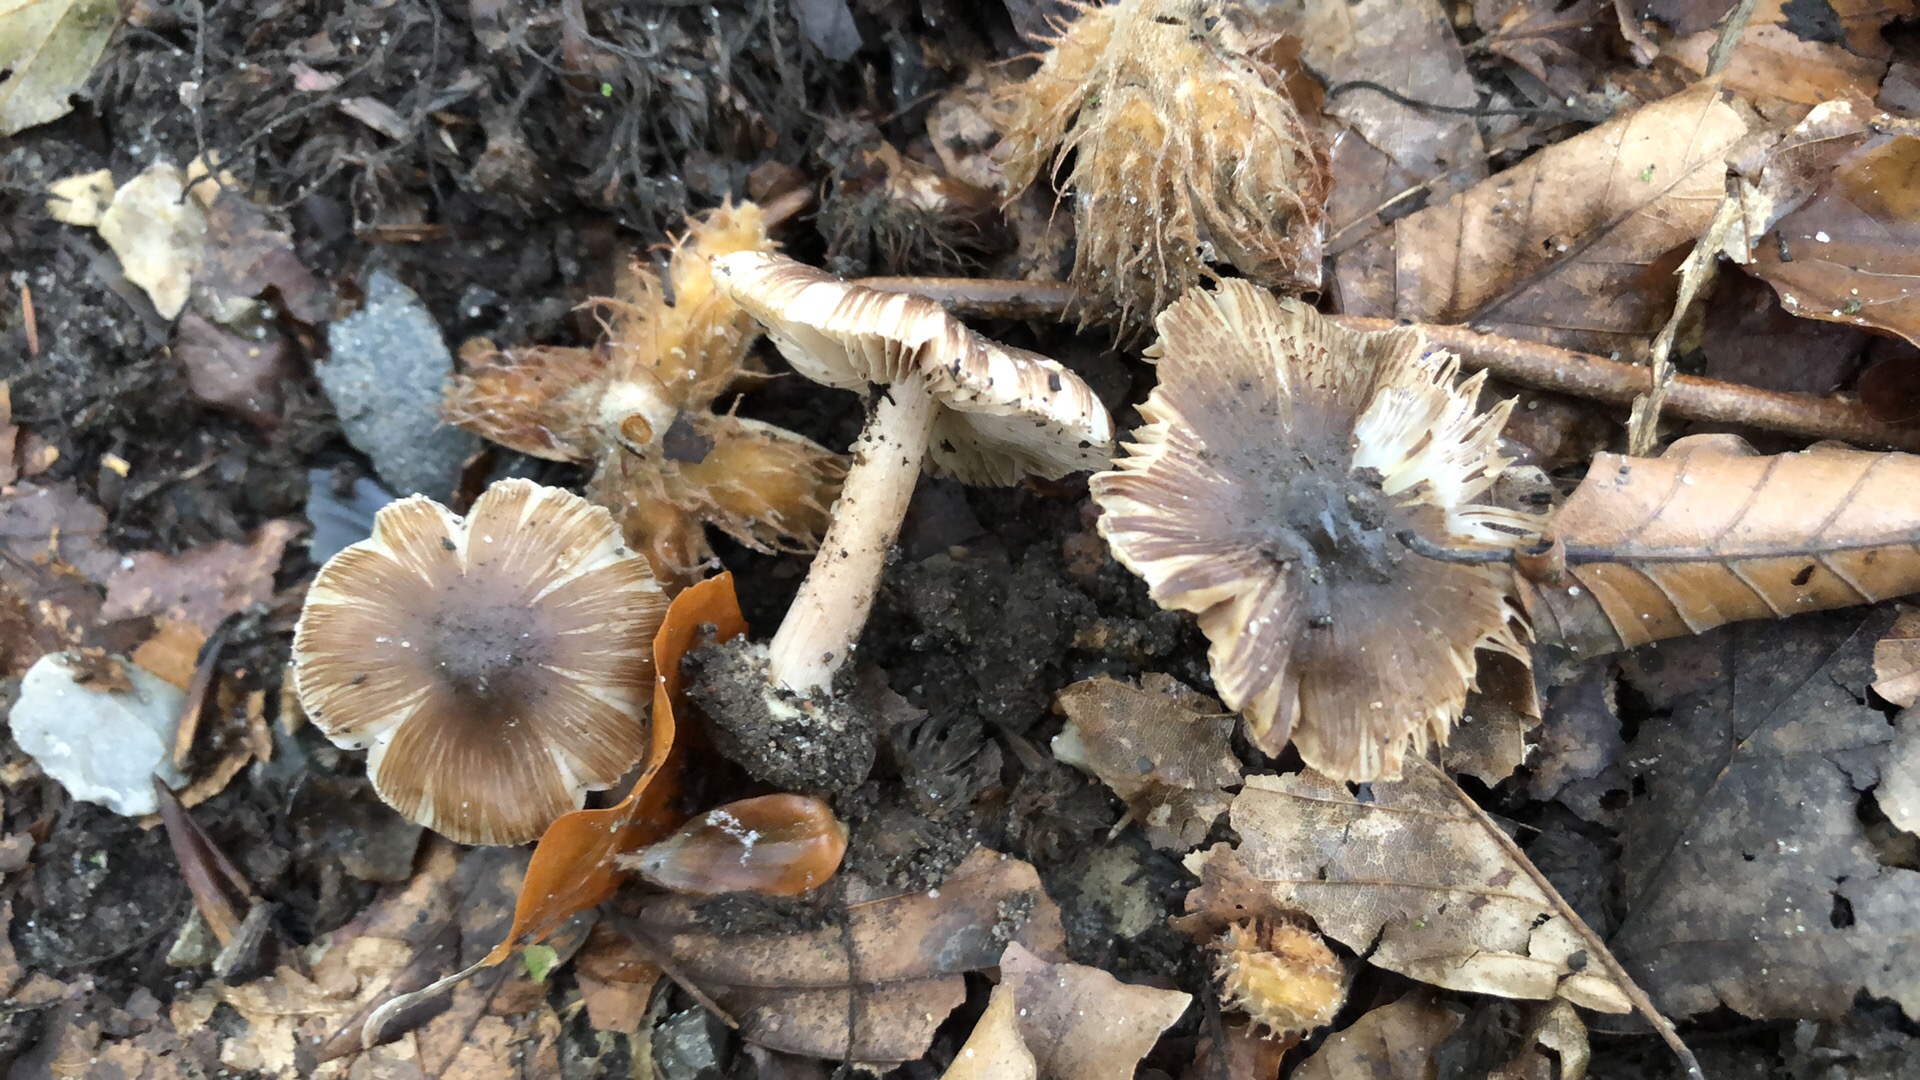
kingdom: Fungi
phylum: Basidiomycota
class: Agaricomycetes
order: Agaricales
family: Inocybaceae
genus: Inocybe
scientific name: Inocybe asterospora
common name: stjernesporet trævlhat
